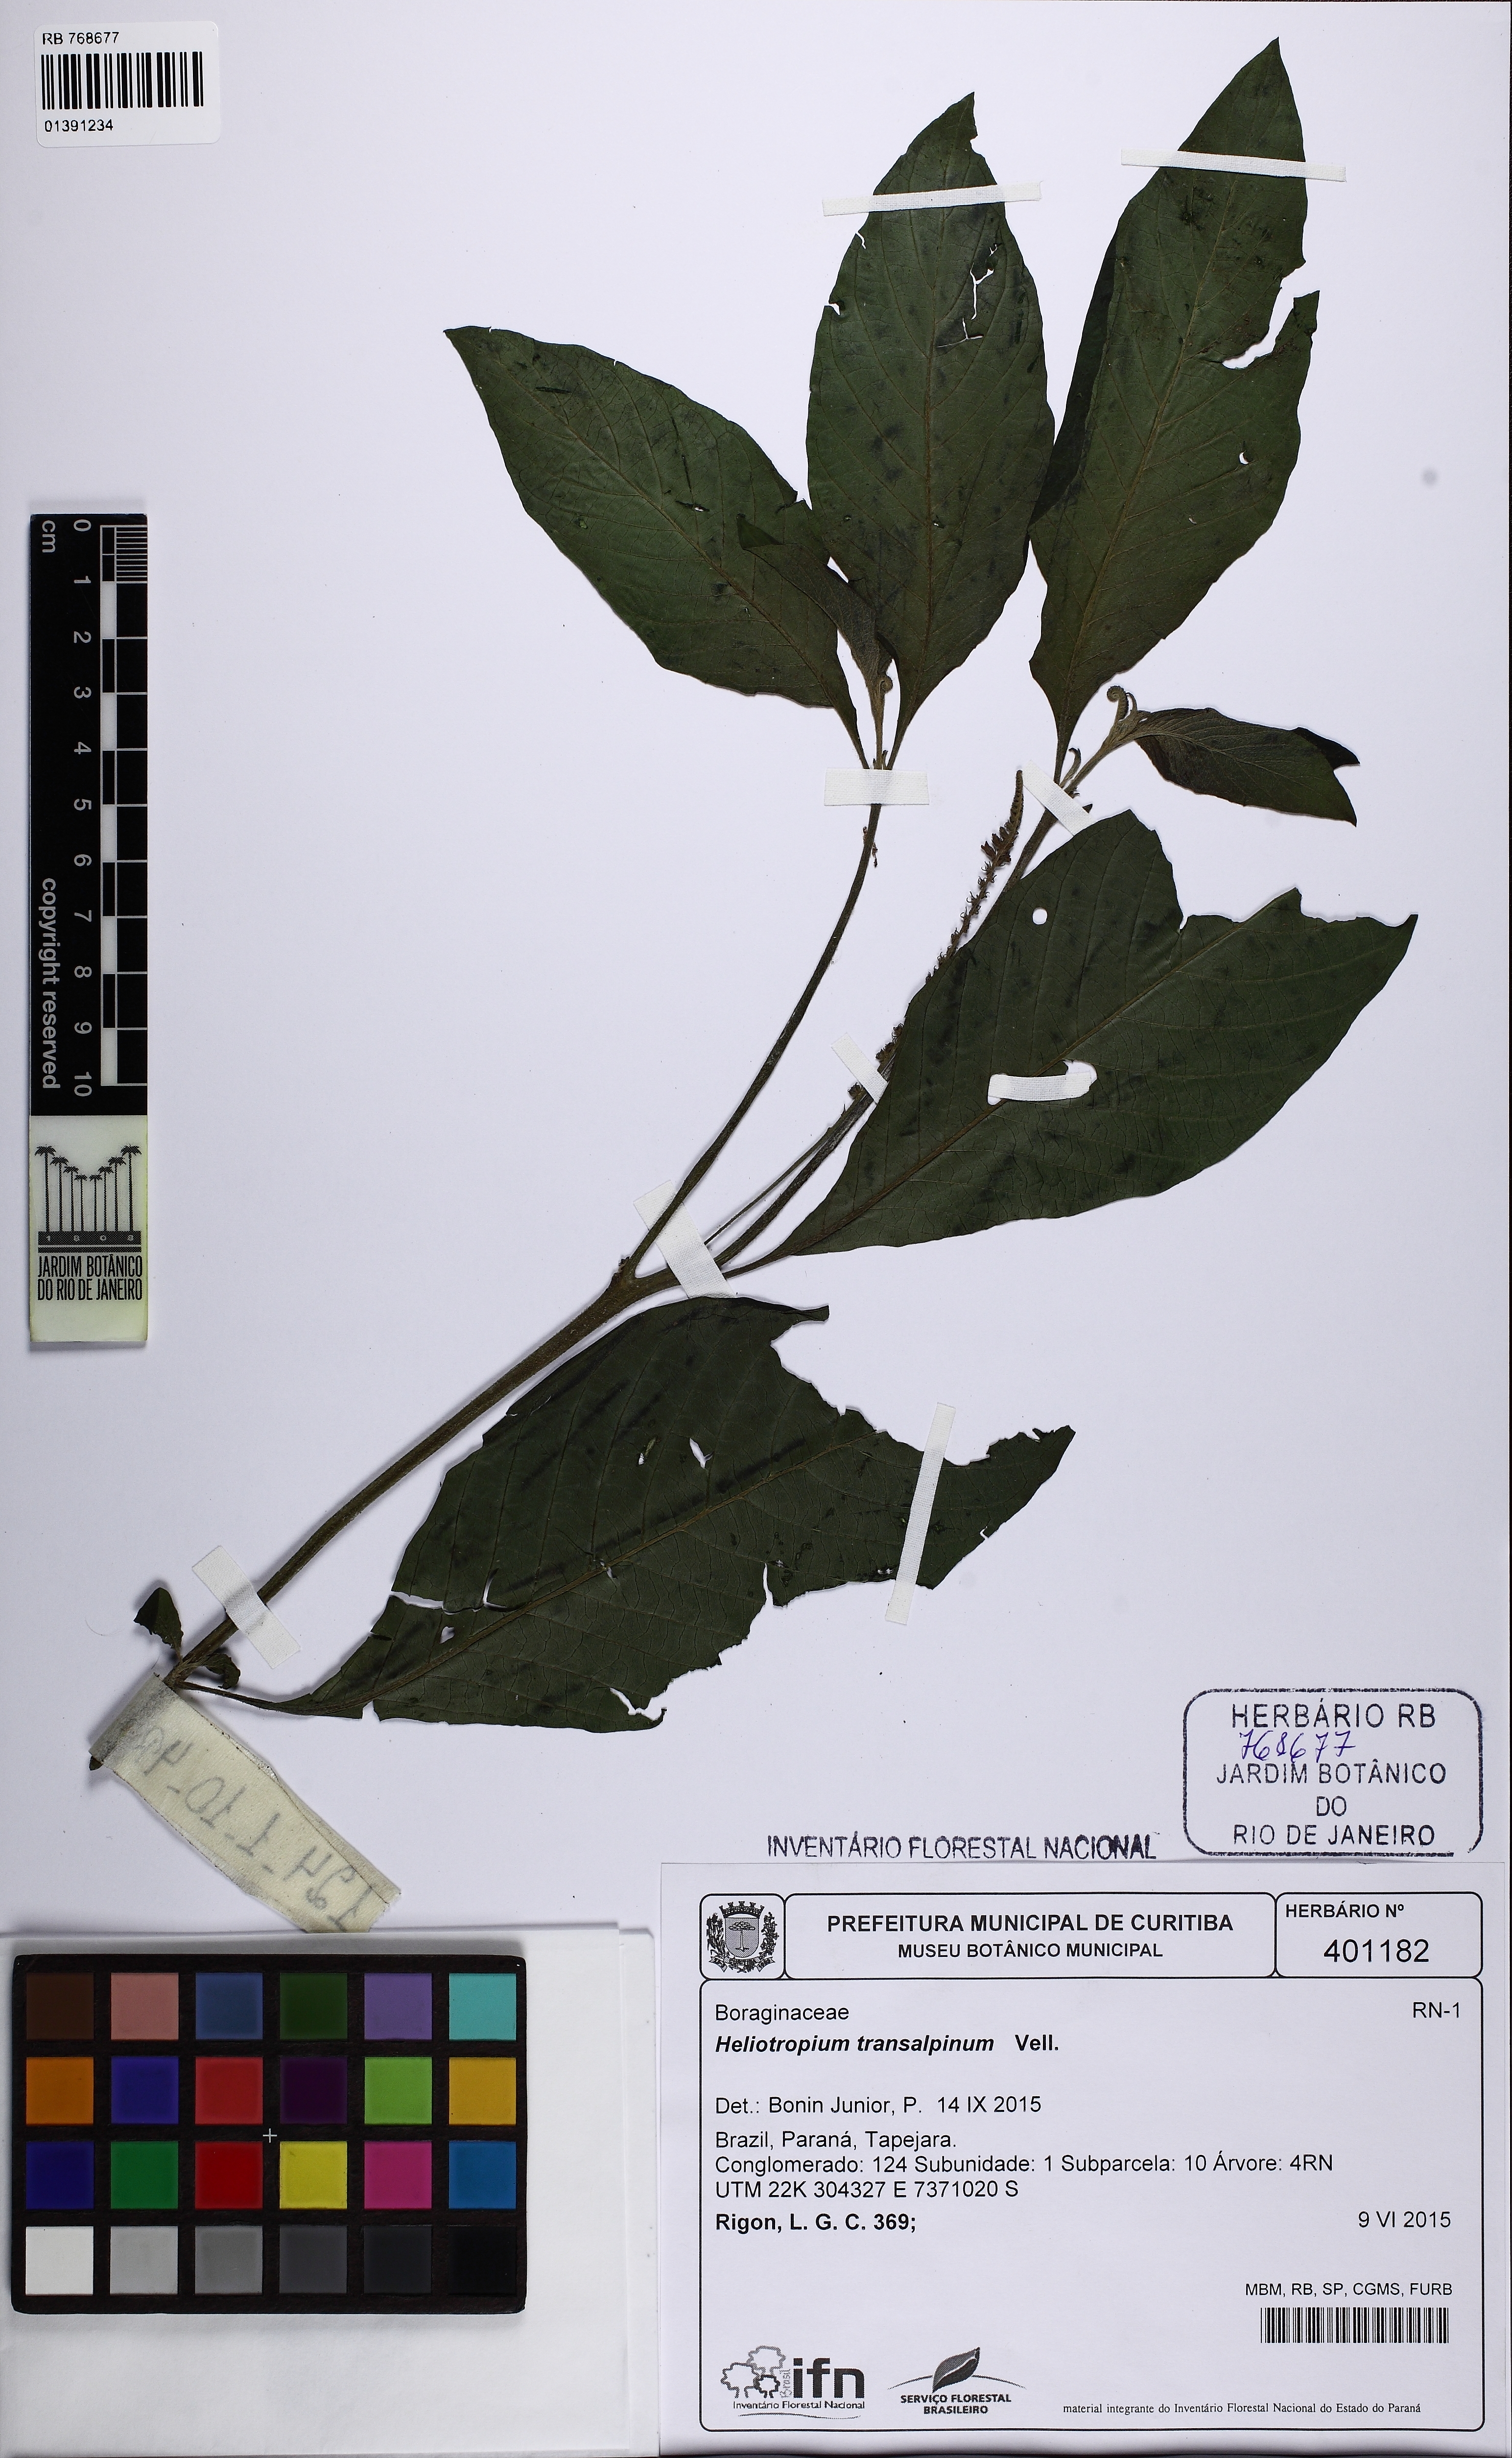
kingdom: Plantae
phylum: Tracheophyta
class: Magnoliopsida
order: Boraginales
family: Heliotropiaceae
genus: Heliotropium
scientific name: Heliotropium transalpinum
